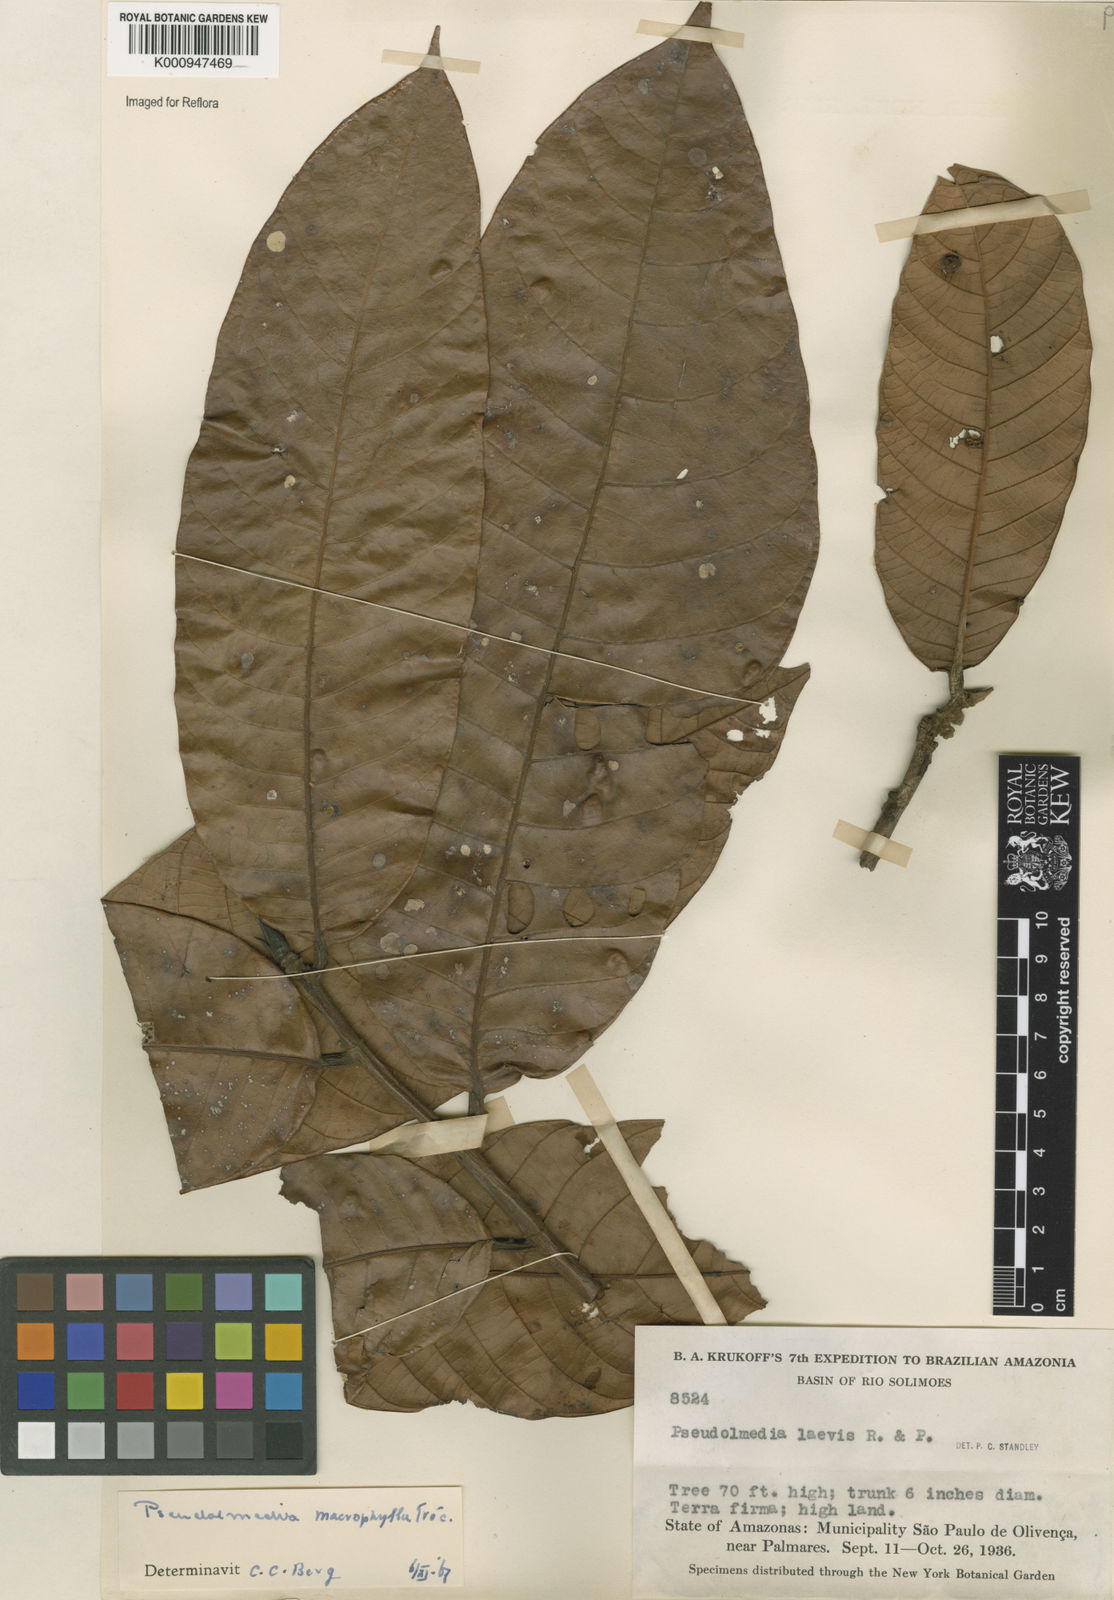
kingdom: Plantae
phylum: Tracheophyta
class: Magnoliopsida
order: Rosales
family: Moraceae
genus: Pseudolmedia
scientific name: Pseudolmedia
